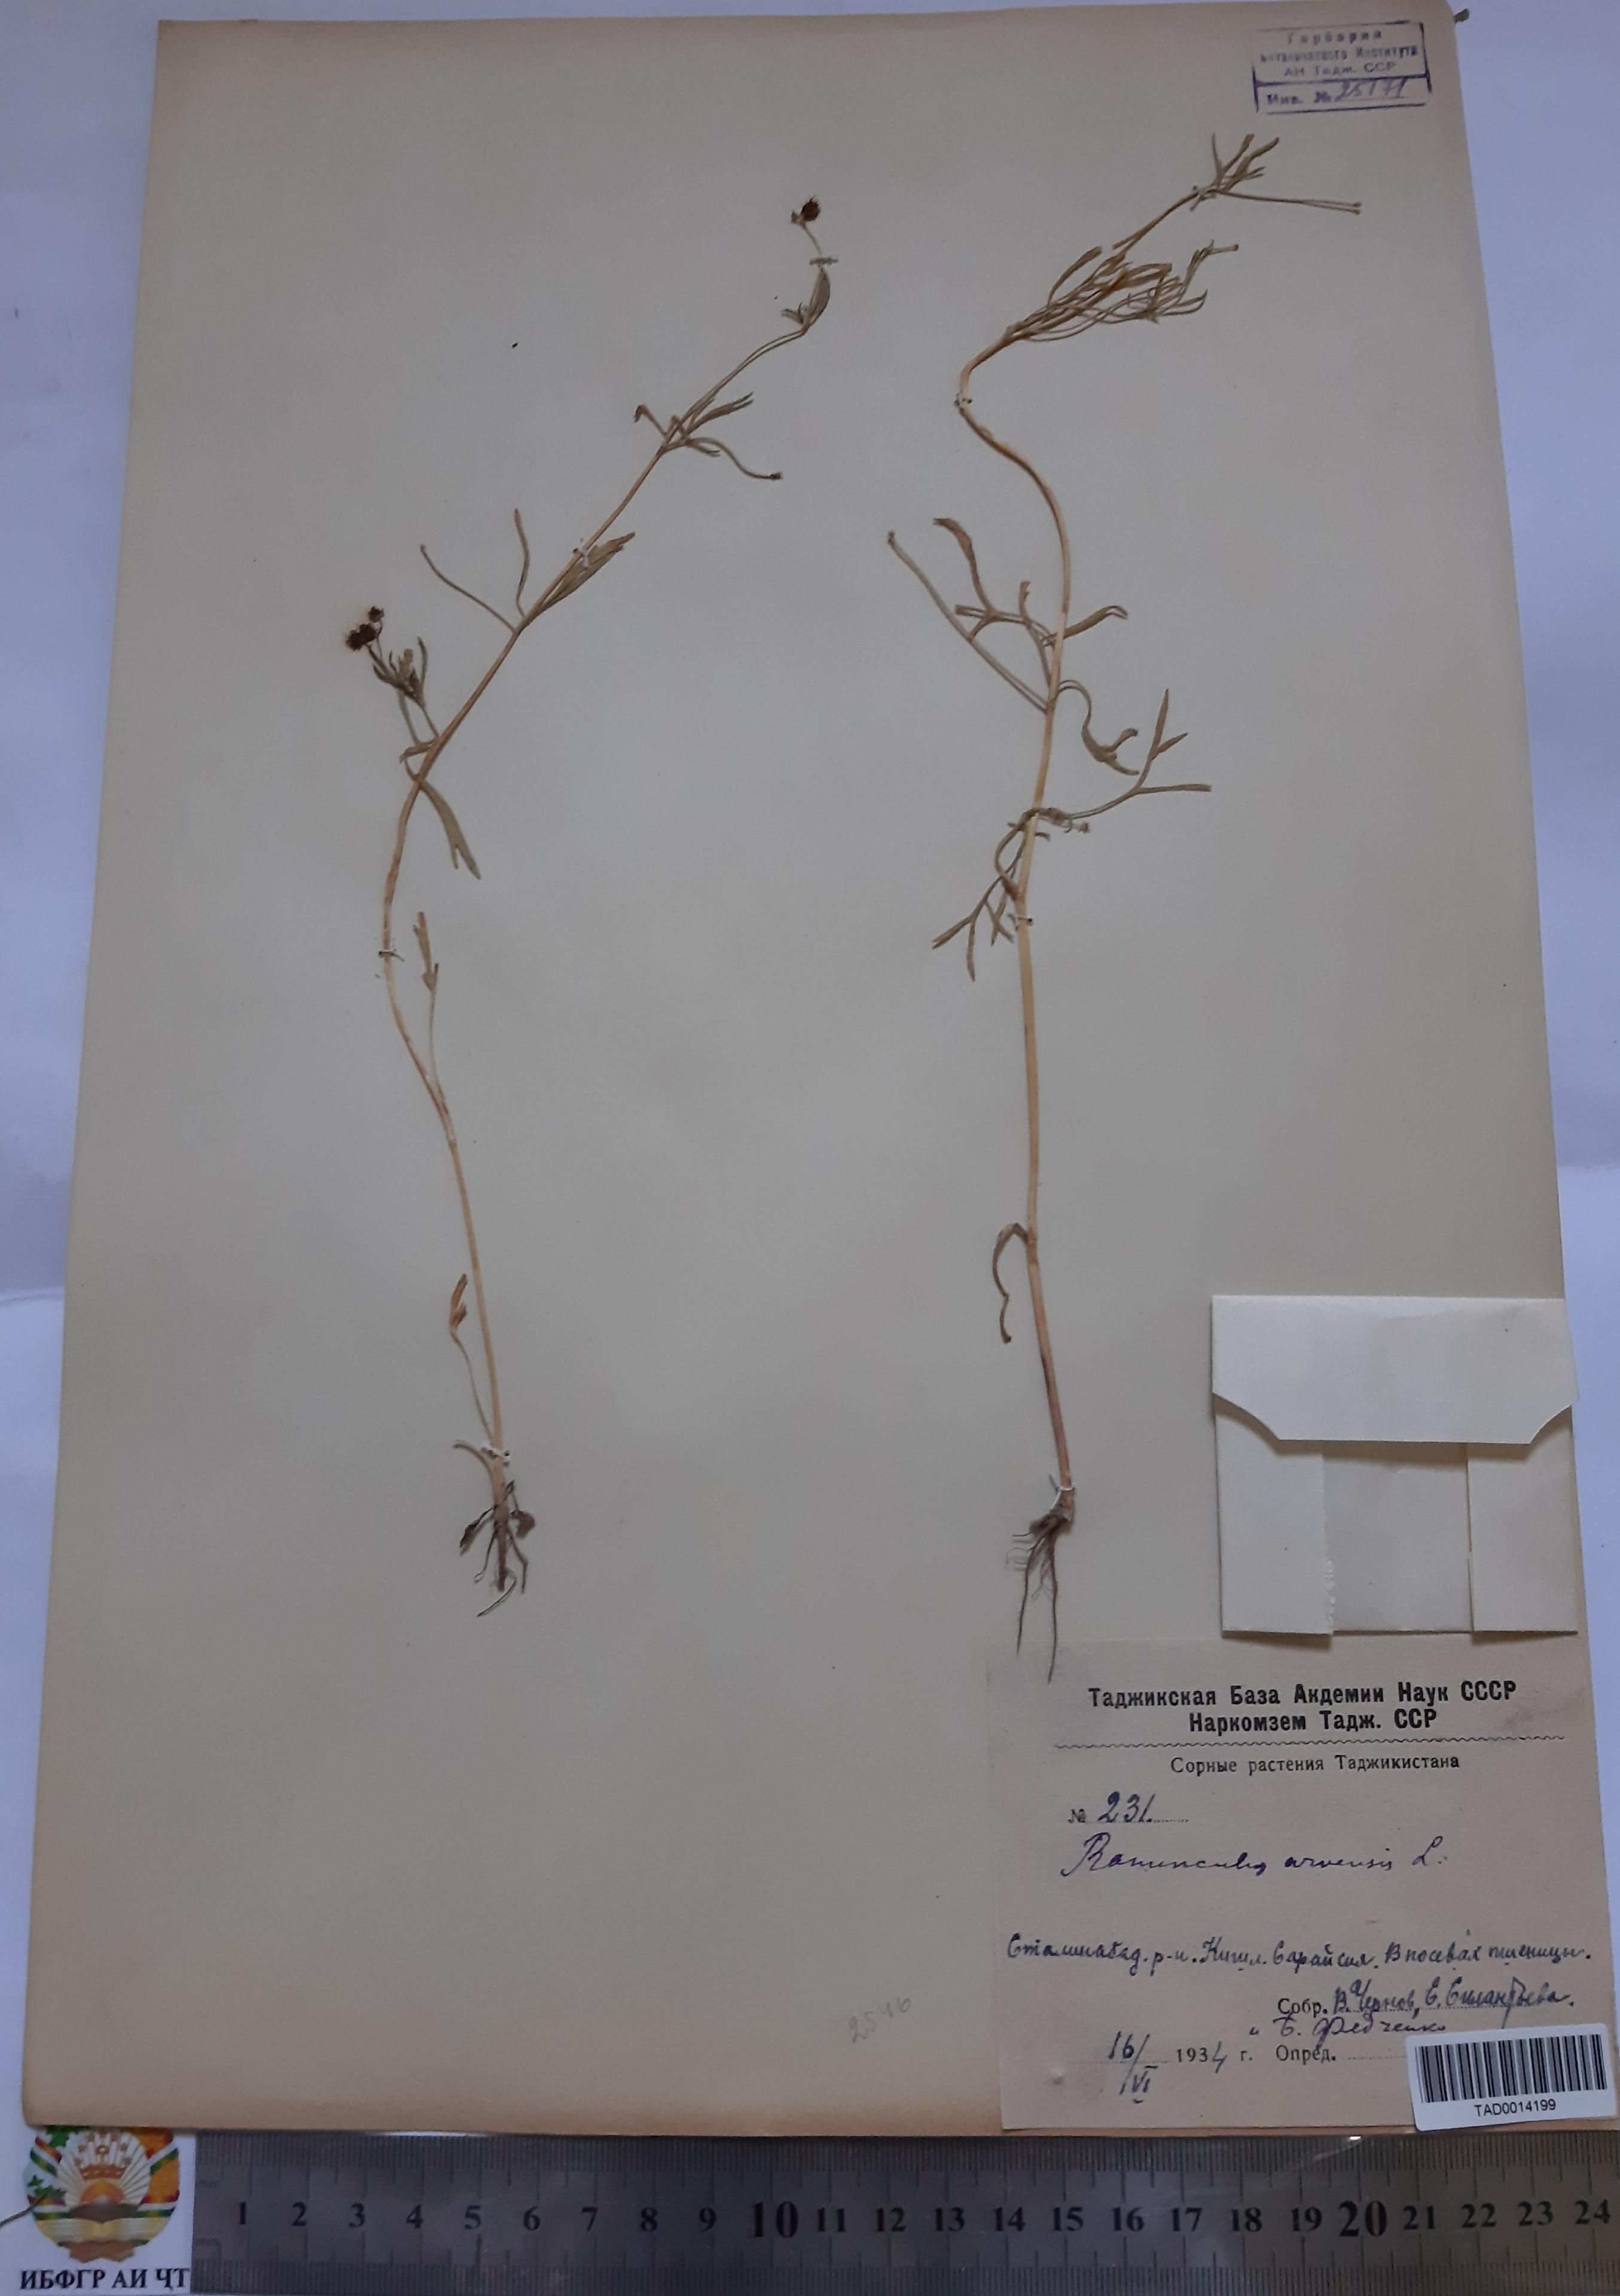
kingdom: Plantae
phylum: Tracheophyta
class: Magnoliopsida
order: Ranunculales
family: Ranunculaceae
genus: Ranunculus
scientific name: Ranunculus arvensis
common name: Corn buttercup
